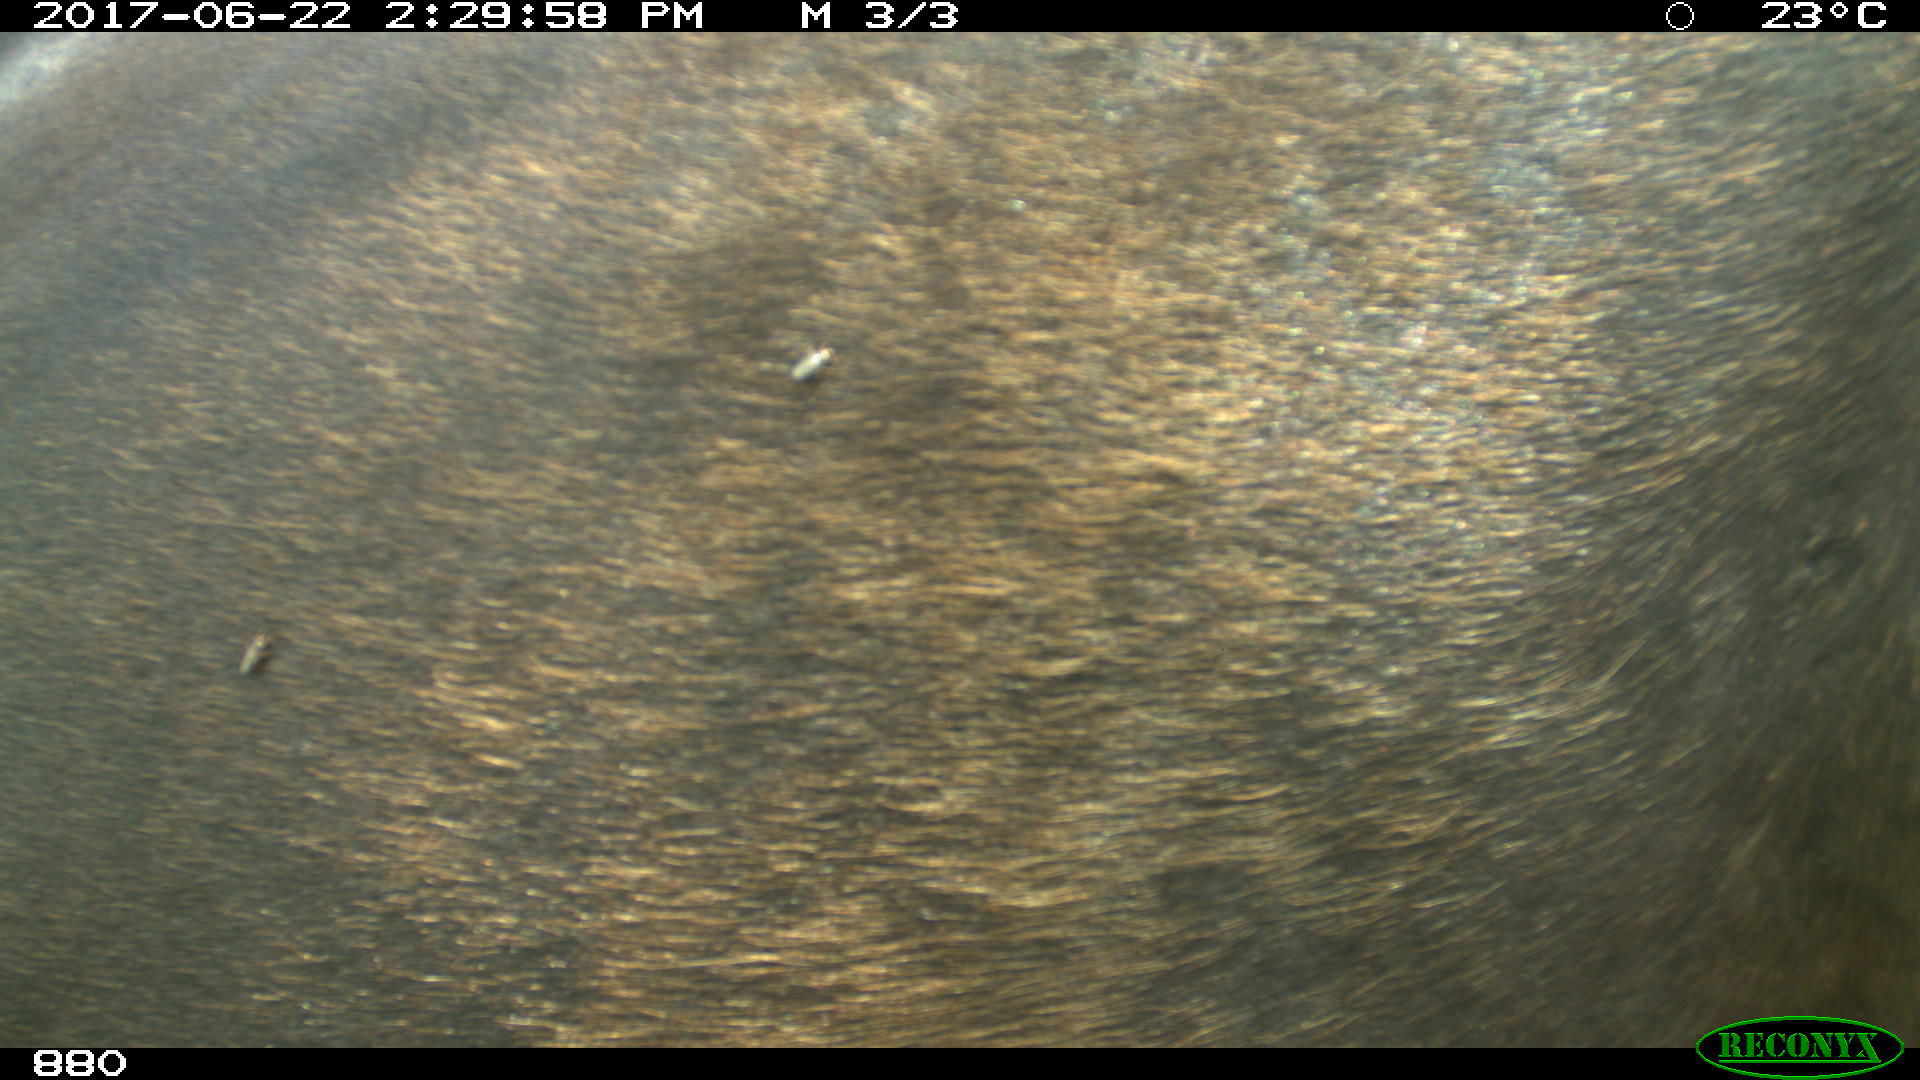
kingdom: Animalia
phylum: Chordata
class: Mammalia
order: Perissodactyla
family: Equidae
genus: Equus
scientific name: Equus caballus
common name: Horse
